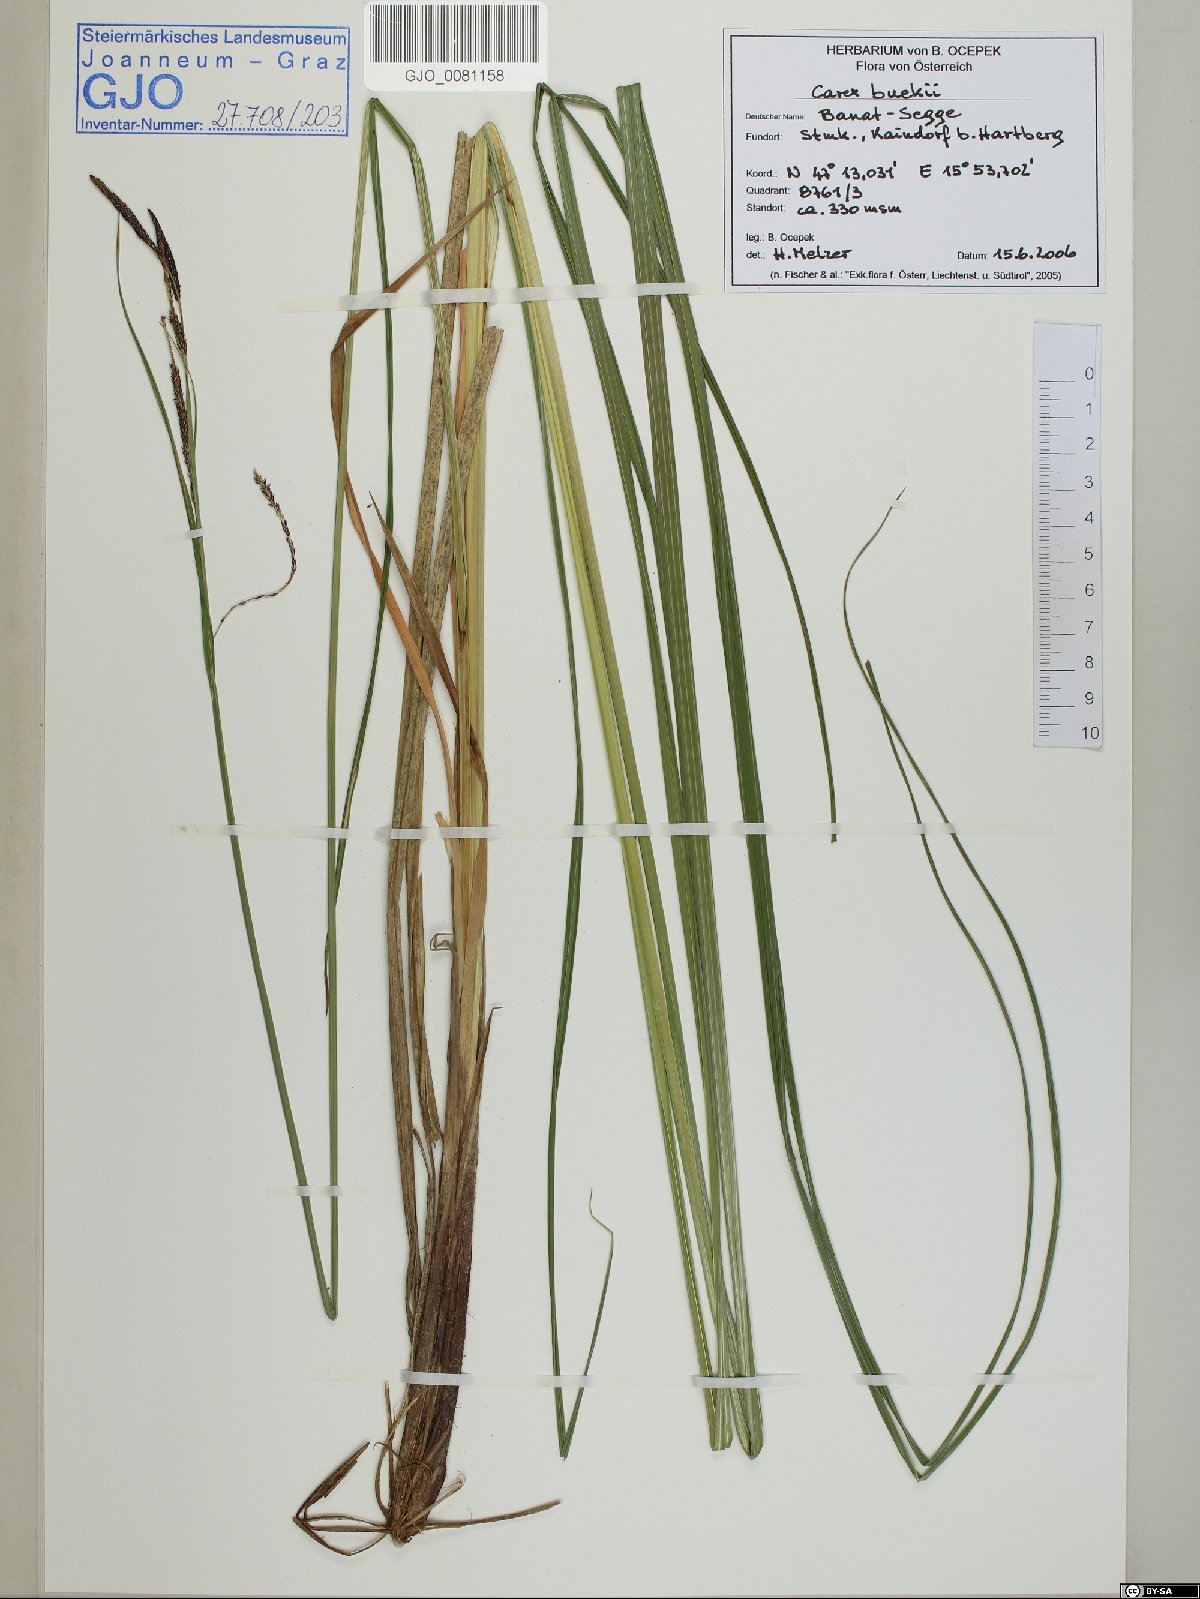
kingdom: Plantae
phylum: Tracheophyta
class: Liliopsida
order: Poales
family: Cyperaceae
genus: Carex
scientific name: Carex buekii
